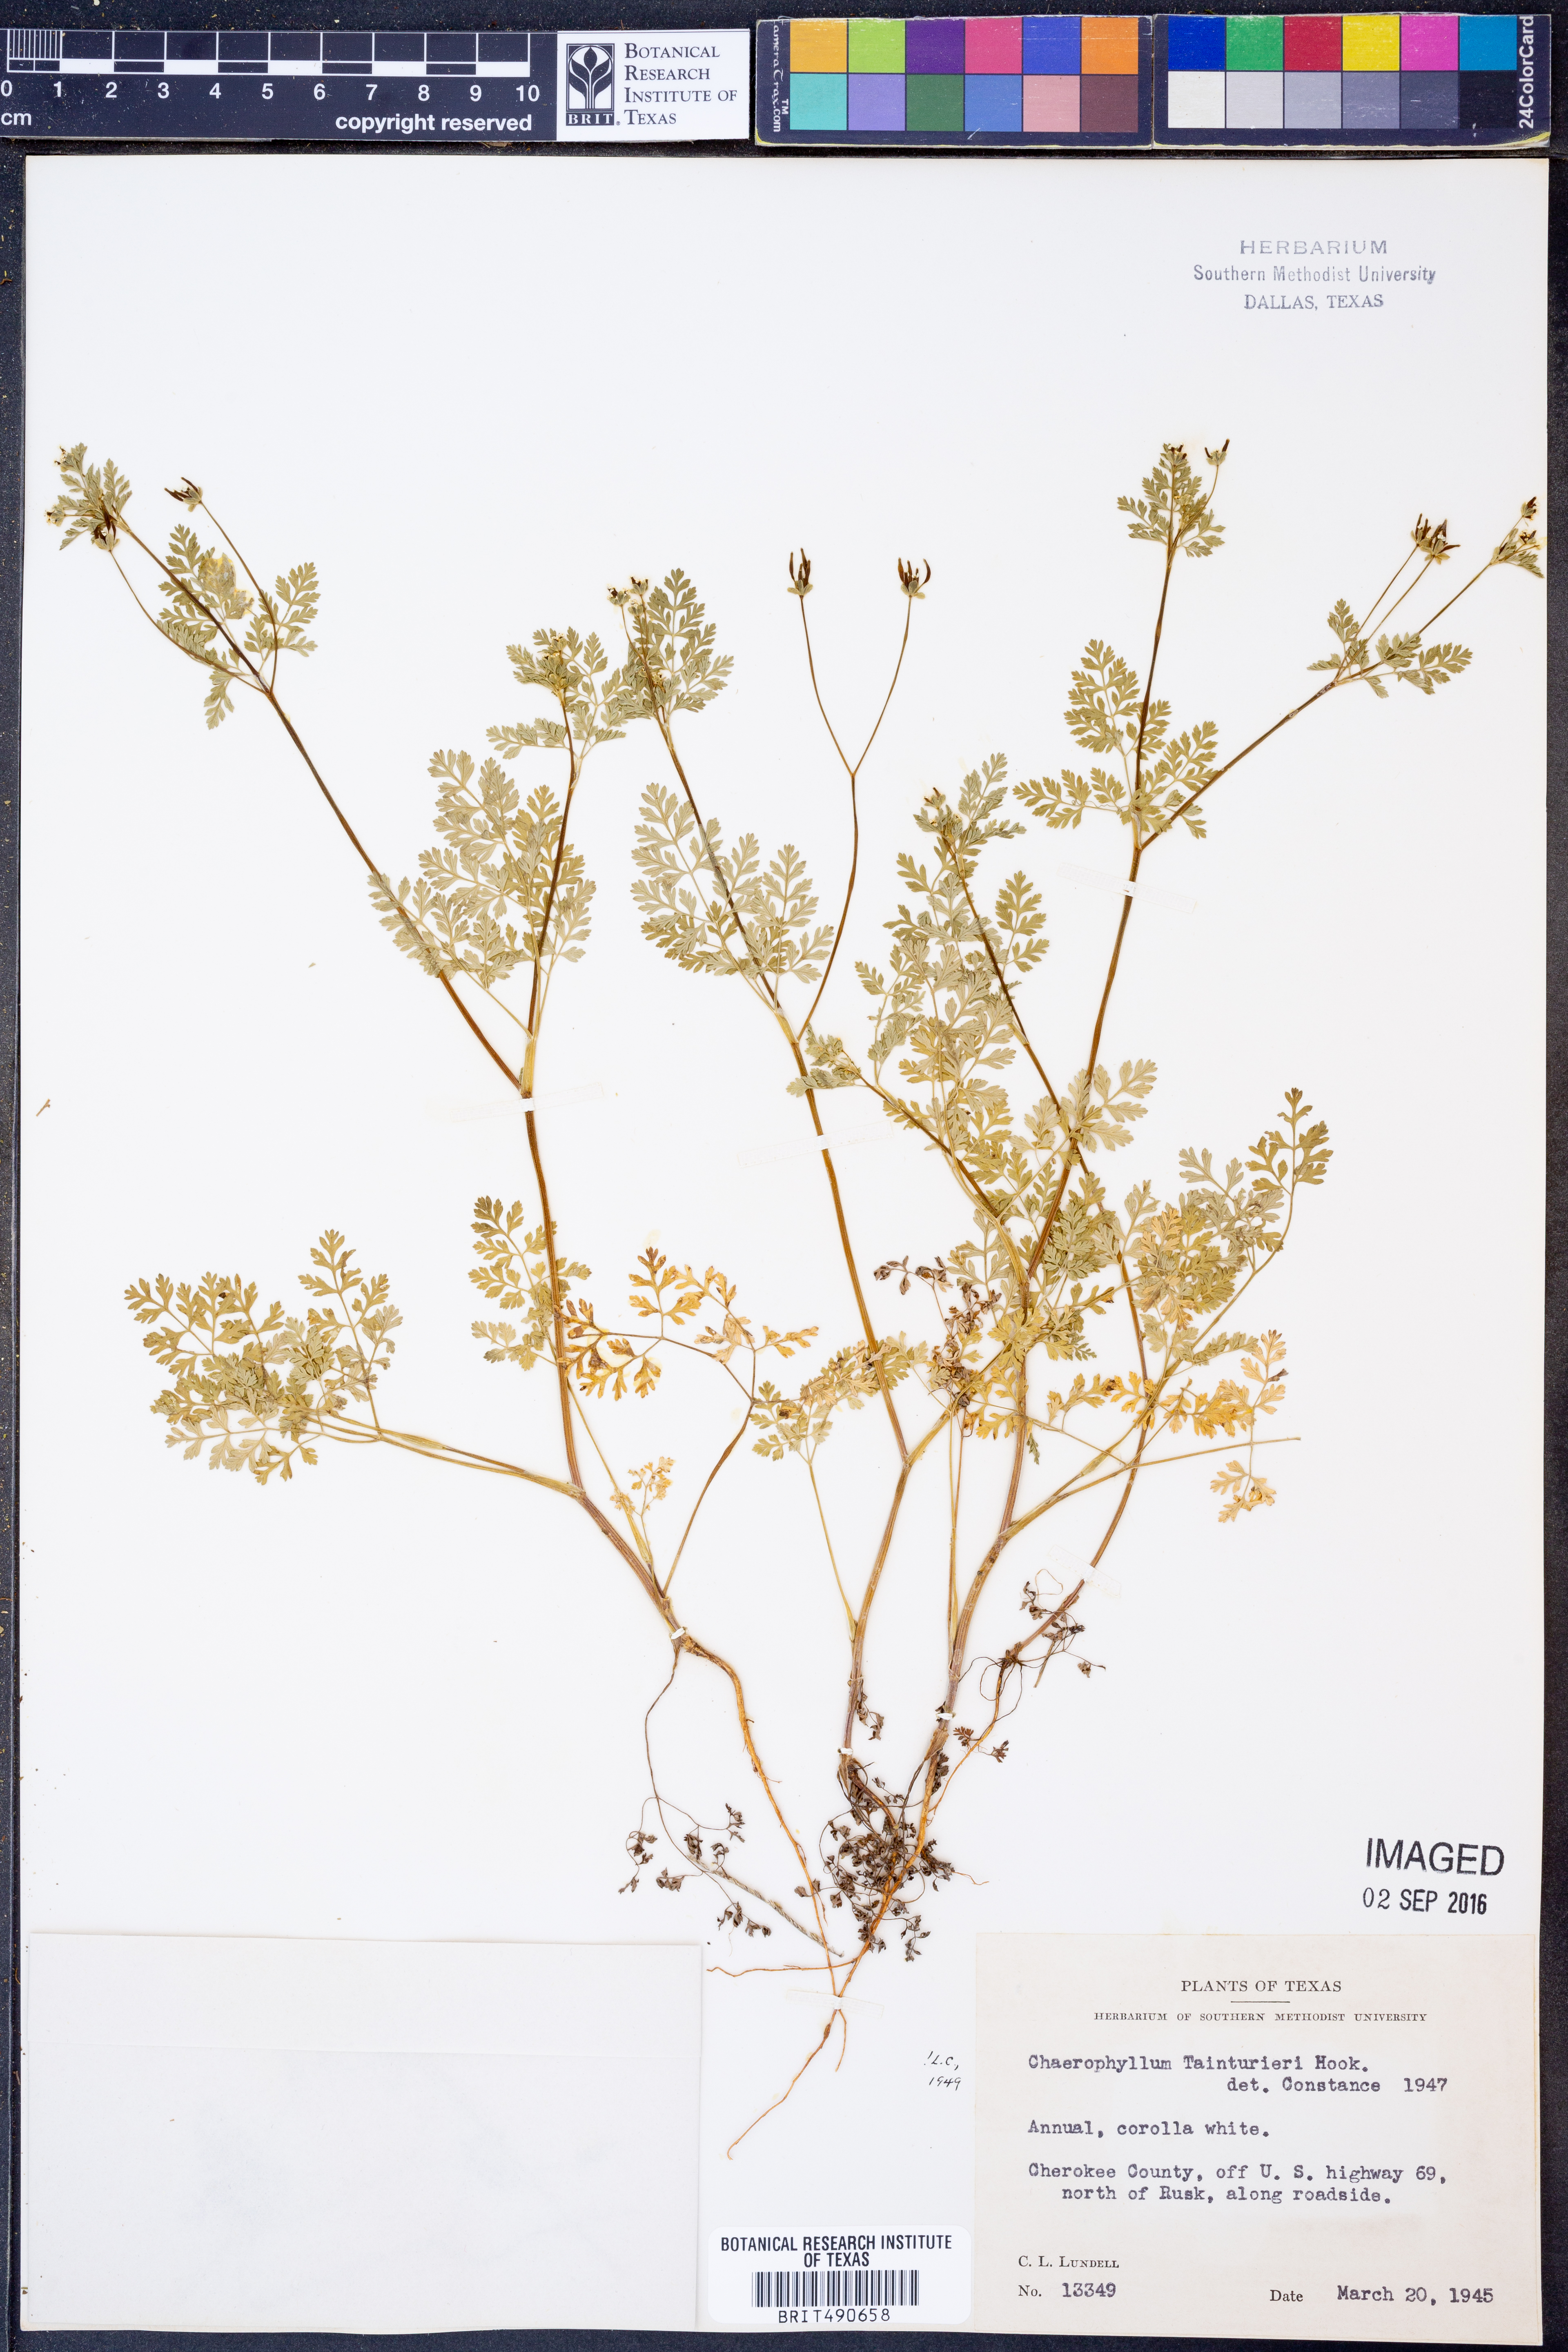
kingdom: Plantae
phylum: Tracheophyta
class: Magnoliopsida
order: Apiales
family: Apiaceae
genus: Chaerophyllum
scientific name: Chaerophyllum tainturieri
